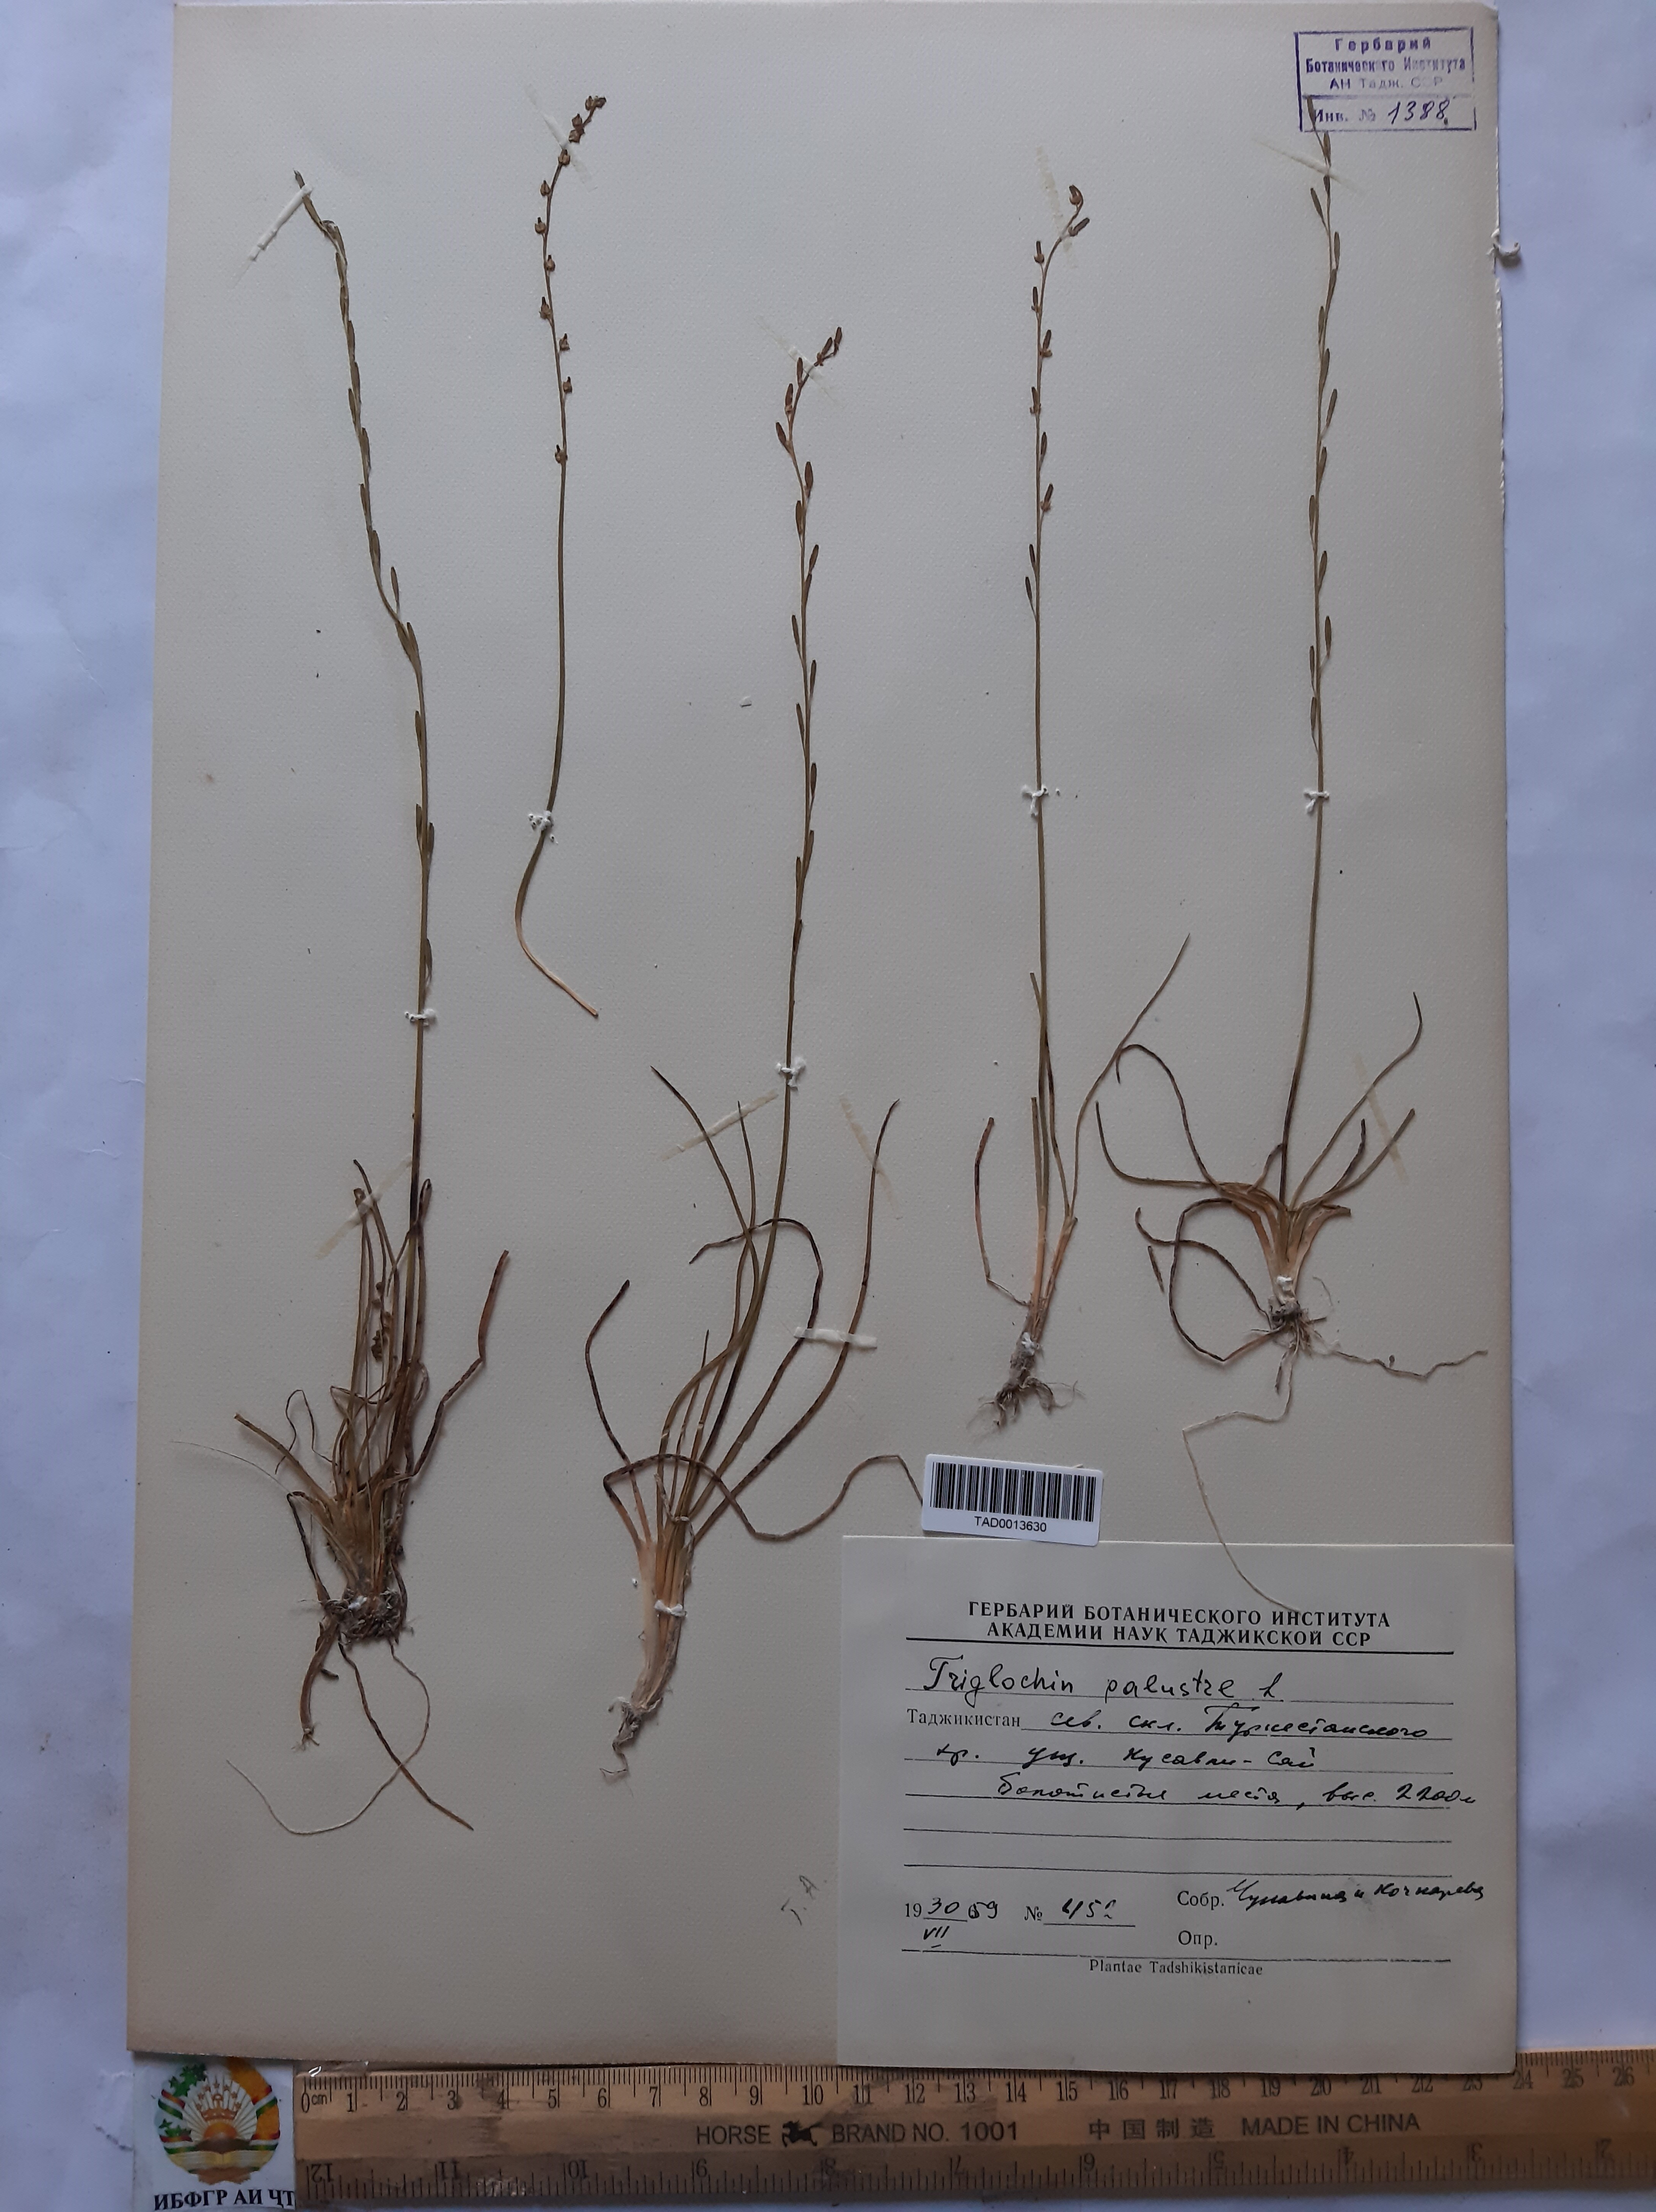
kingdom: Plantae
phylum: Tracheophyta
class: Liliopsida
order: Alismatales
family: Juncaginaceae
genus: Triglochin
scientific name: Triglochin palustris
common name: Marsh arrowgrass
